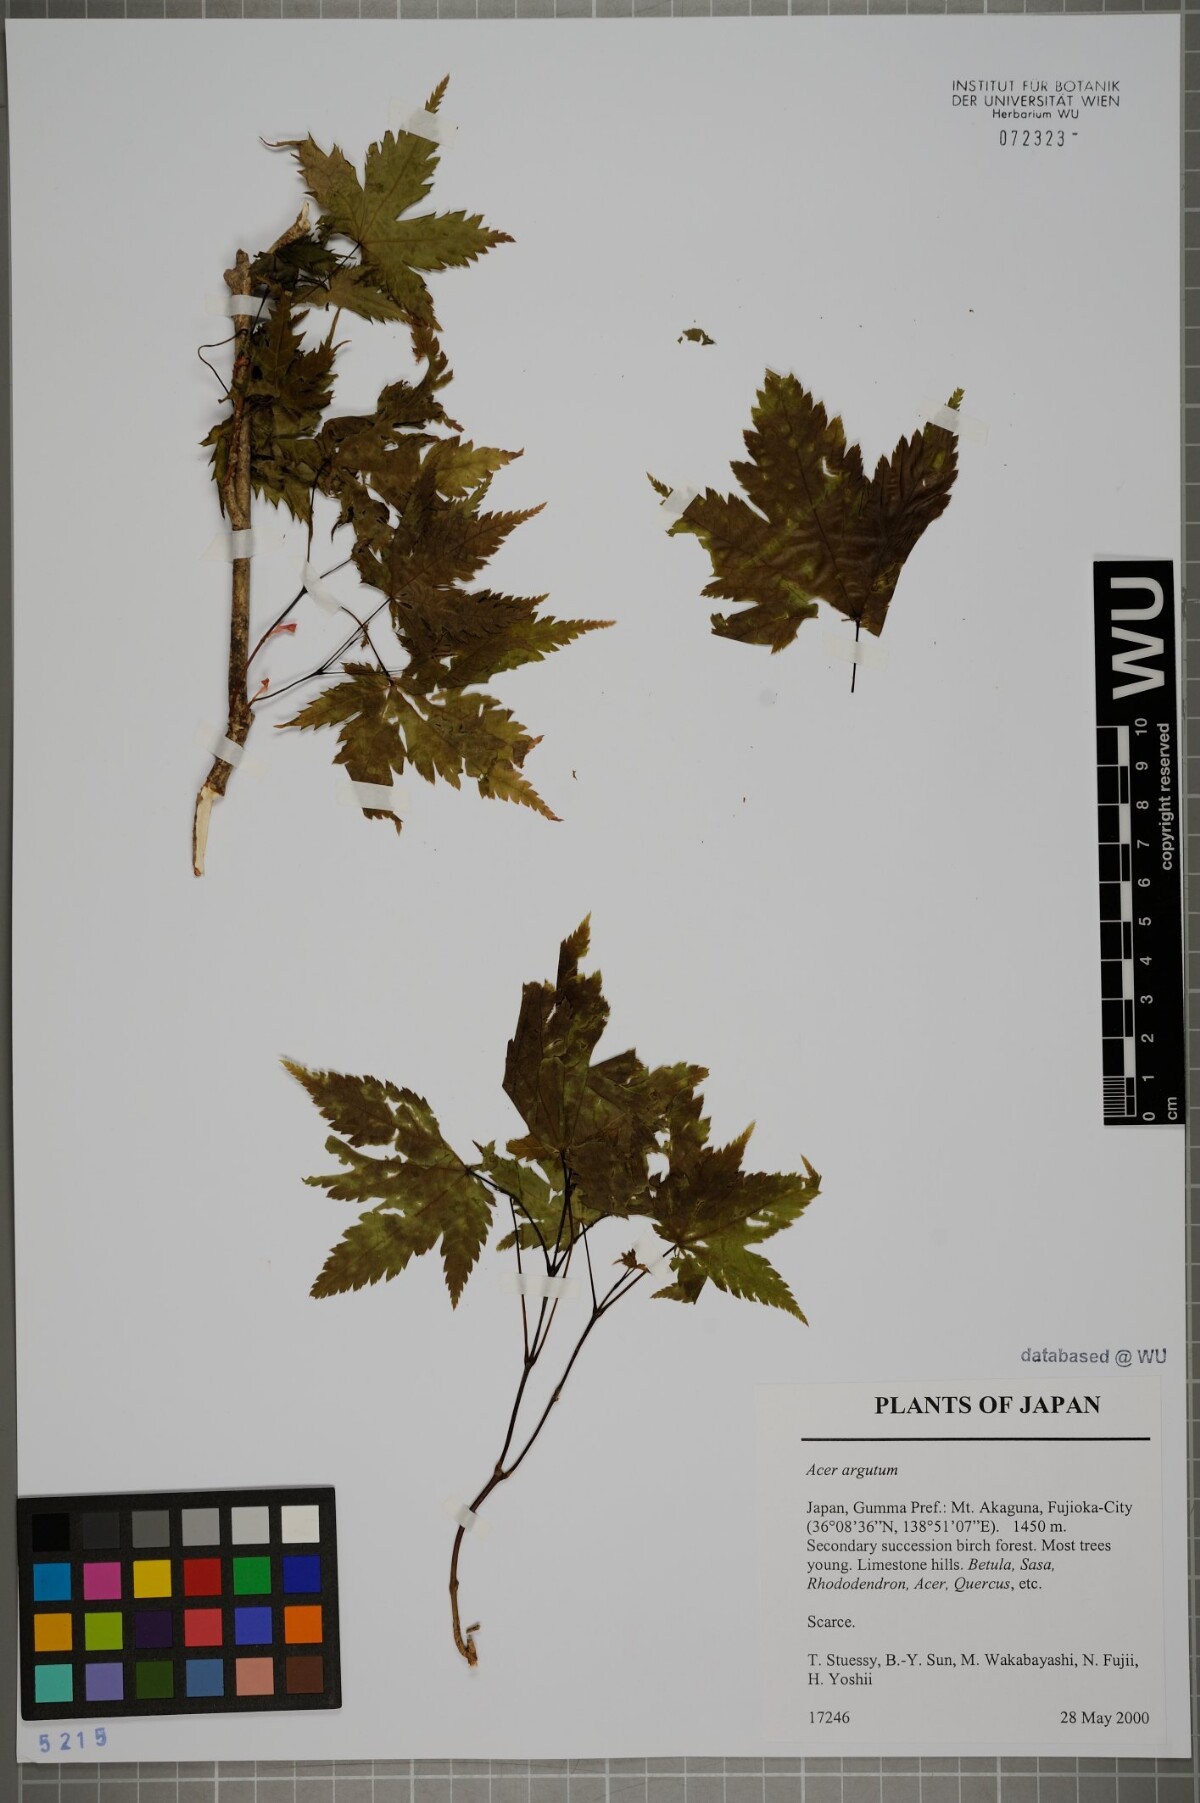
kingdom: Plantae
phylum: Tracheophyta
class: Magnoliopsida
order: Sapindales
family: Sapindaceae
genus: Acer
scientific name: Acer argutum
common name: Pointed-leaf maple
